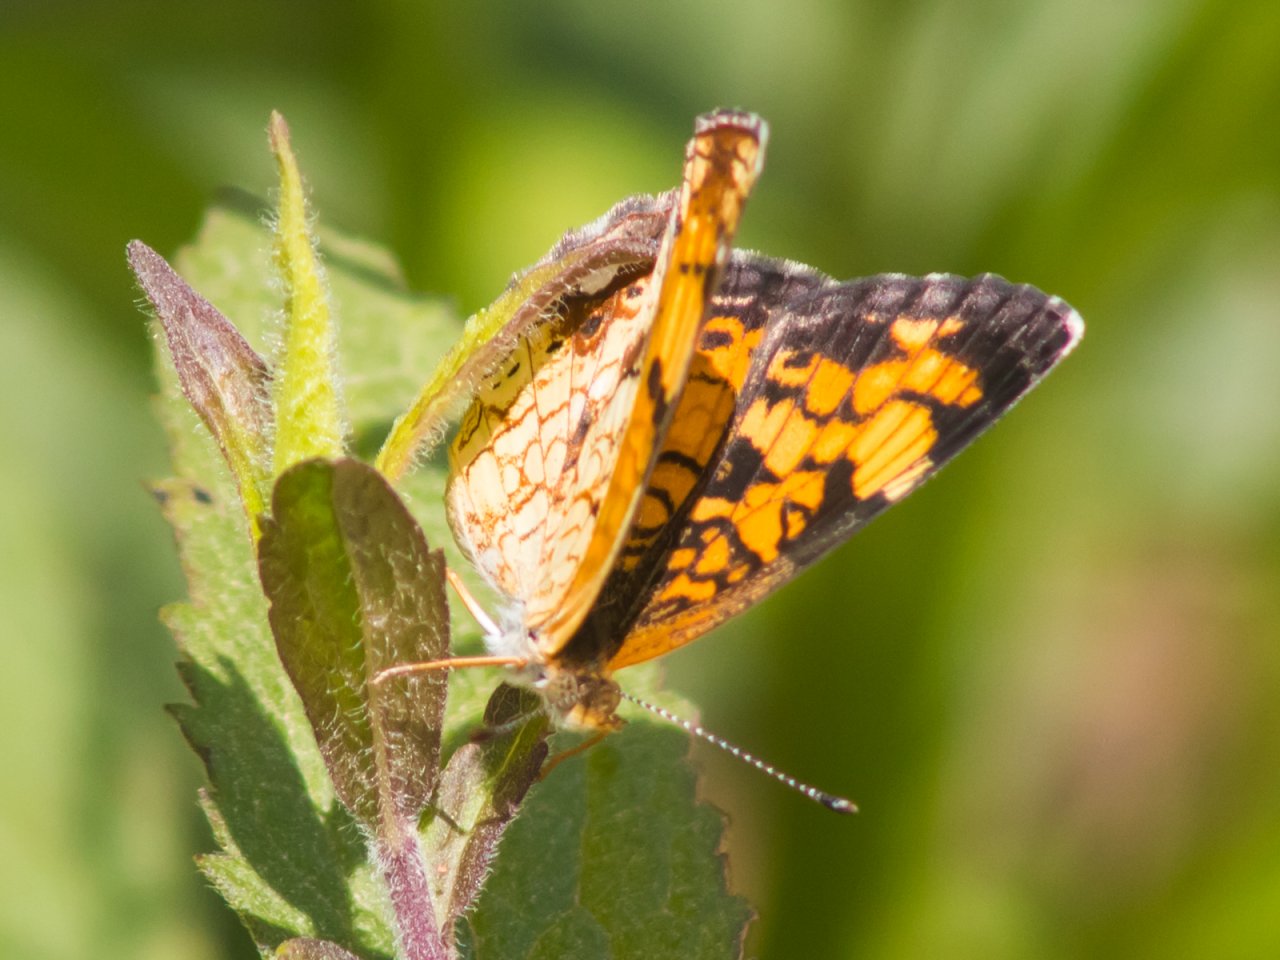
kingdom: Animalia
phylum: Arthropoda
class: Insecta
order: Lepidoptera
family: Nymphalidae
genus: Phyciodes
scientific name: Phyciodes tharos
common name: Pearl Crescent
